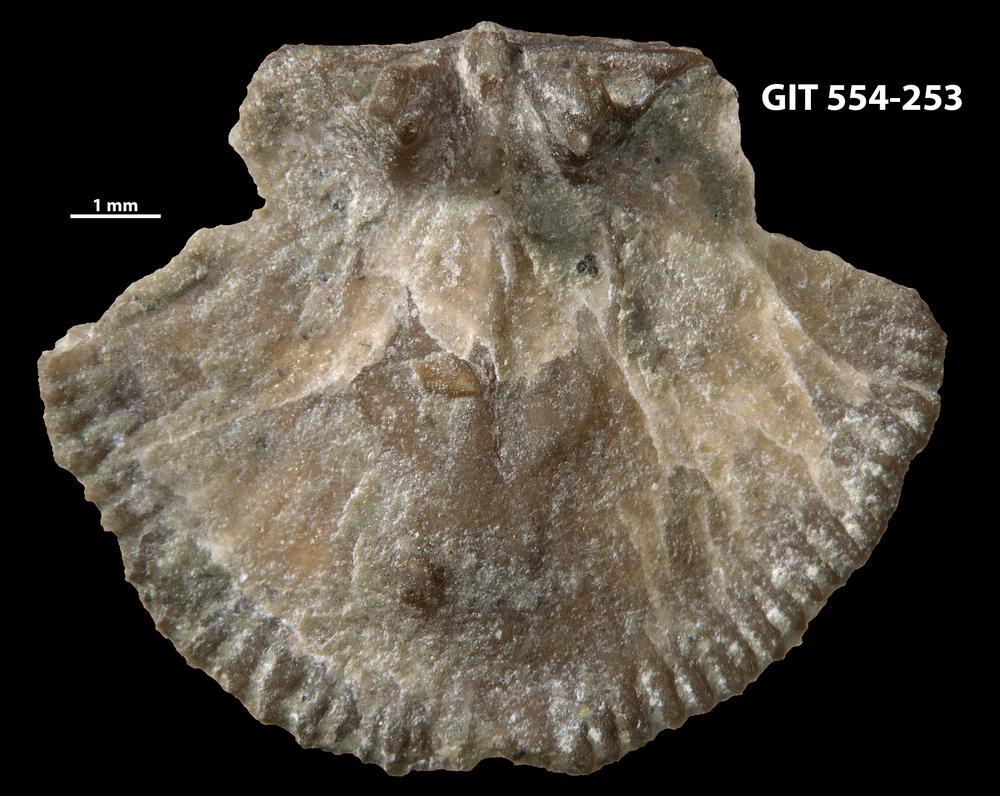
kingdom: Animalia
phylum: Brachiopoda
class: Rhynchonellata
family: Dalmanellidae
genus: Resserella
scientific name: Resserella Orthis canalis
